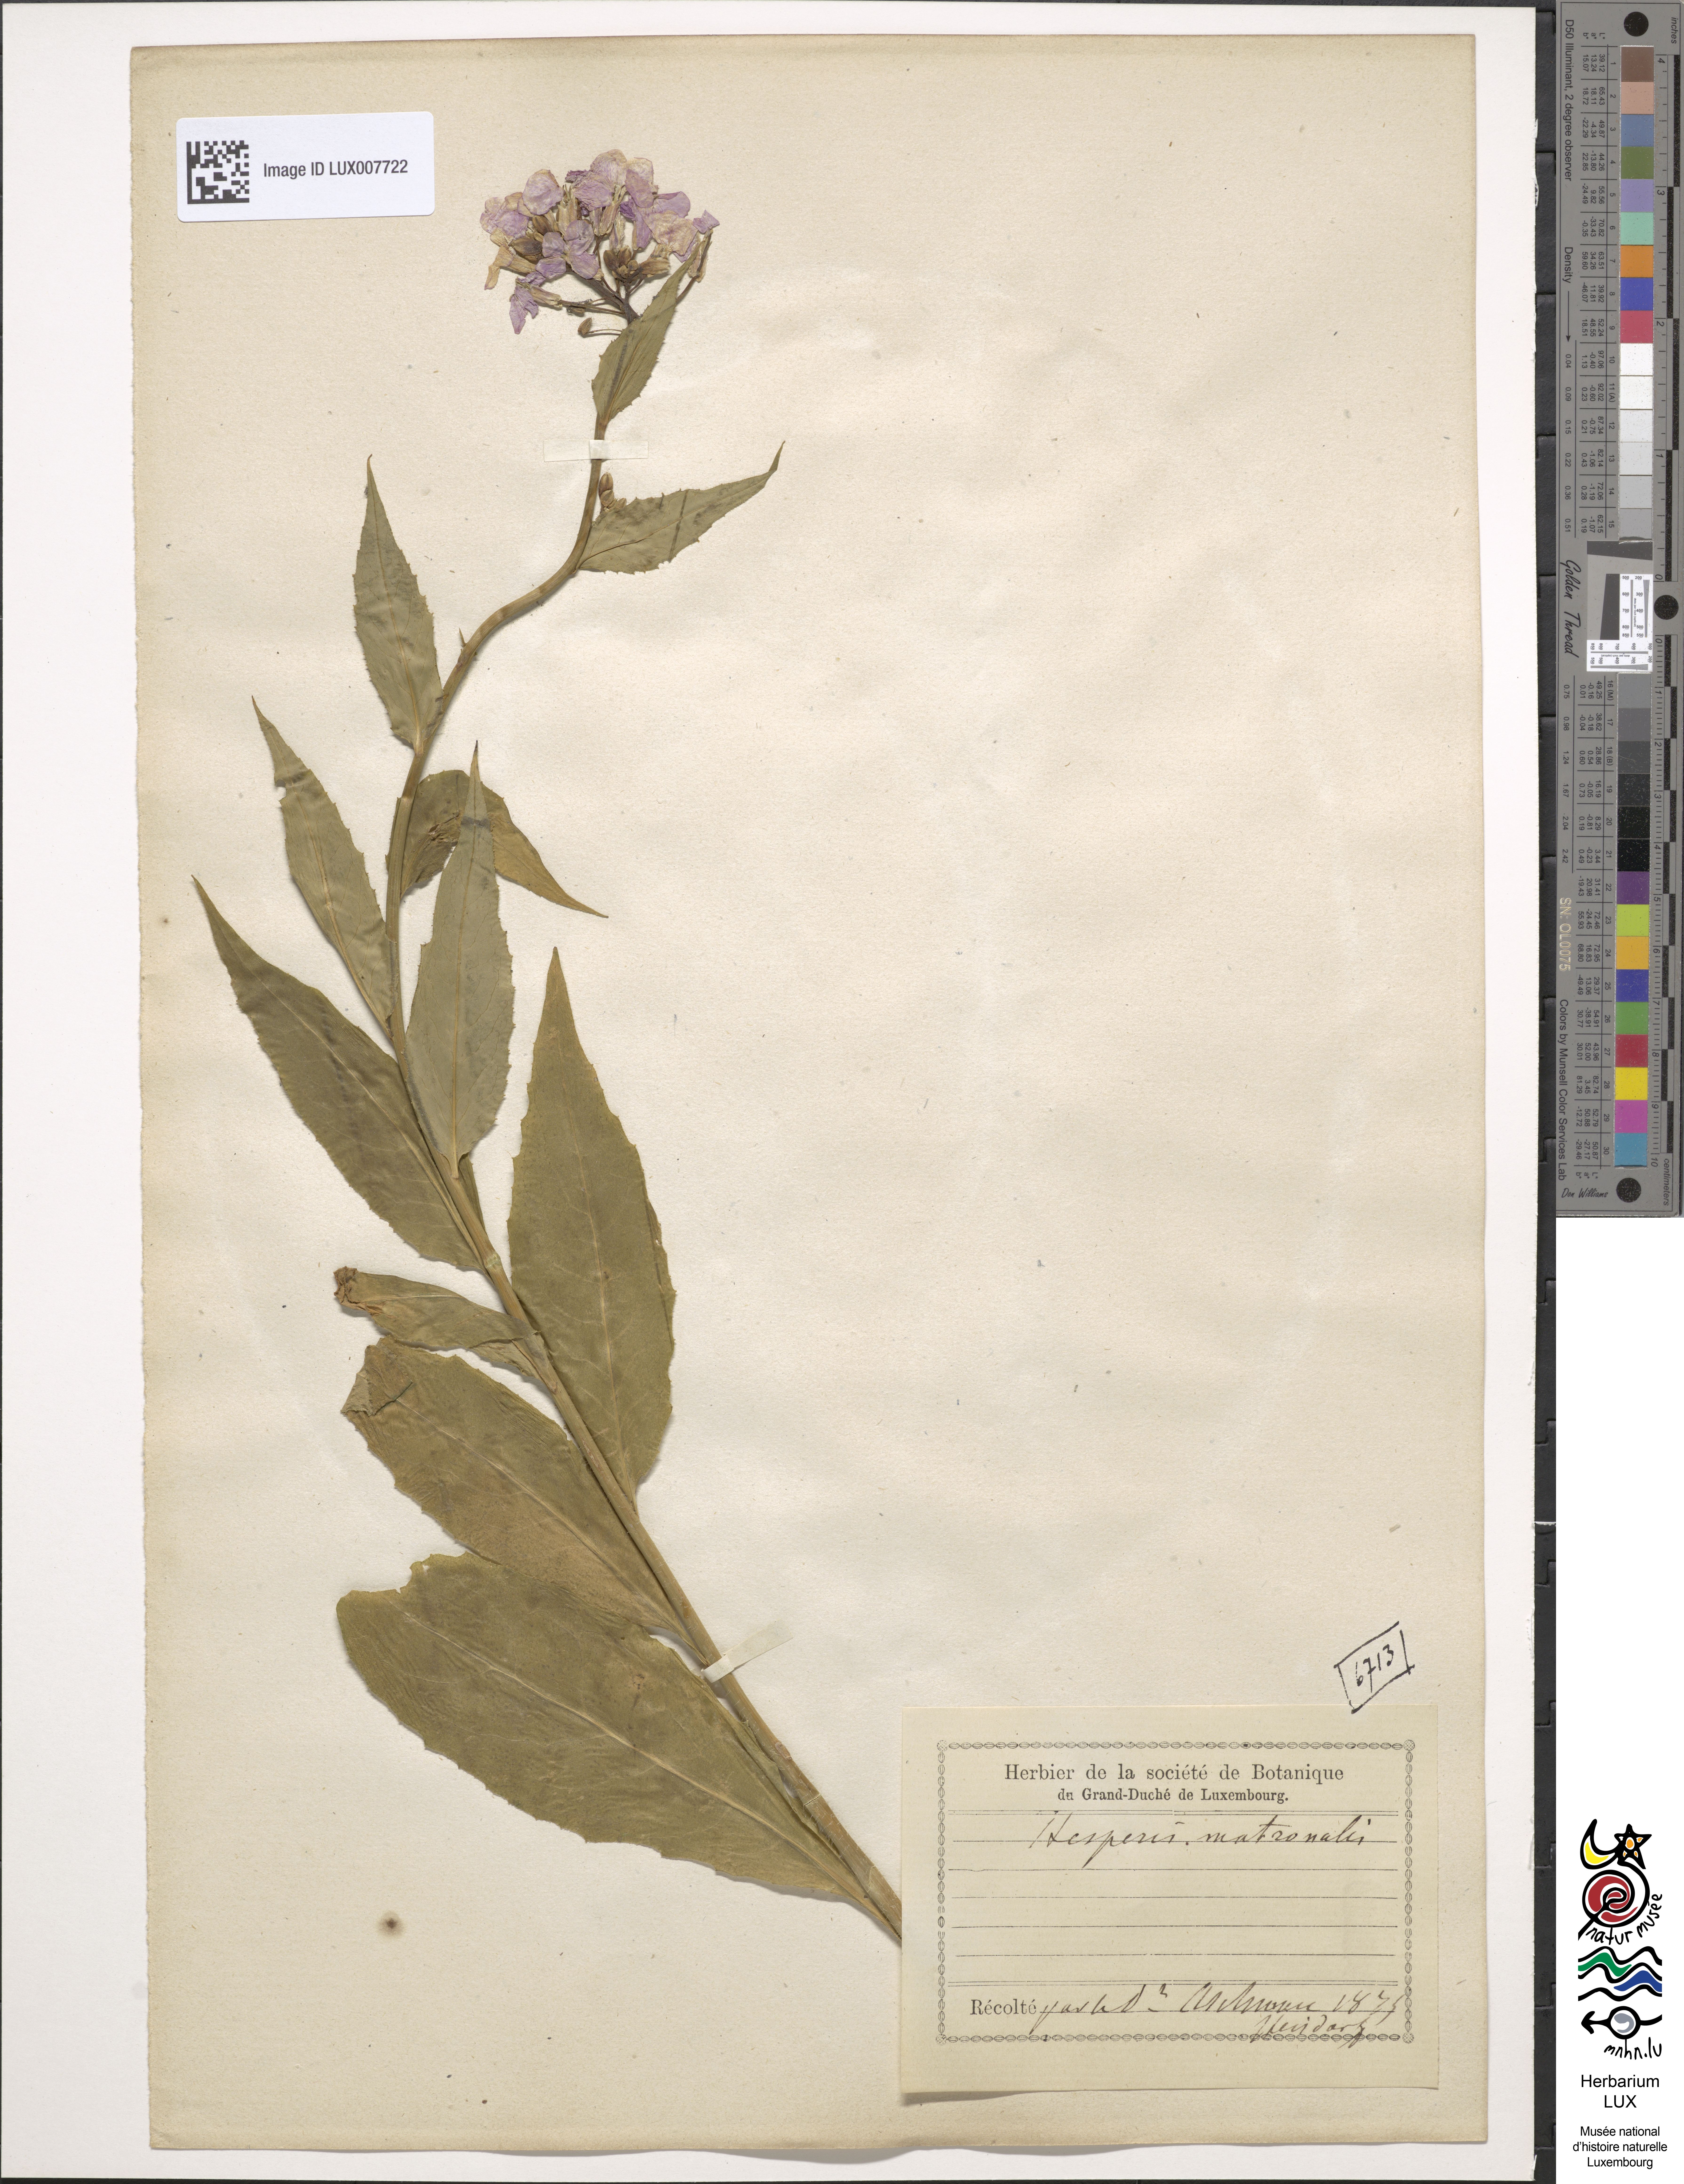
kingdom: Plantae
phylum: Tracheophyta
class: Magnoliopsida
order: Brassicales
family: Brassicaceae
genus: Hesperis
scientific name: Hesperis matronalis
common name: Dame's-violet
